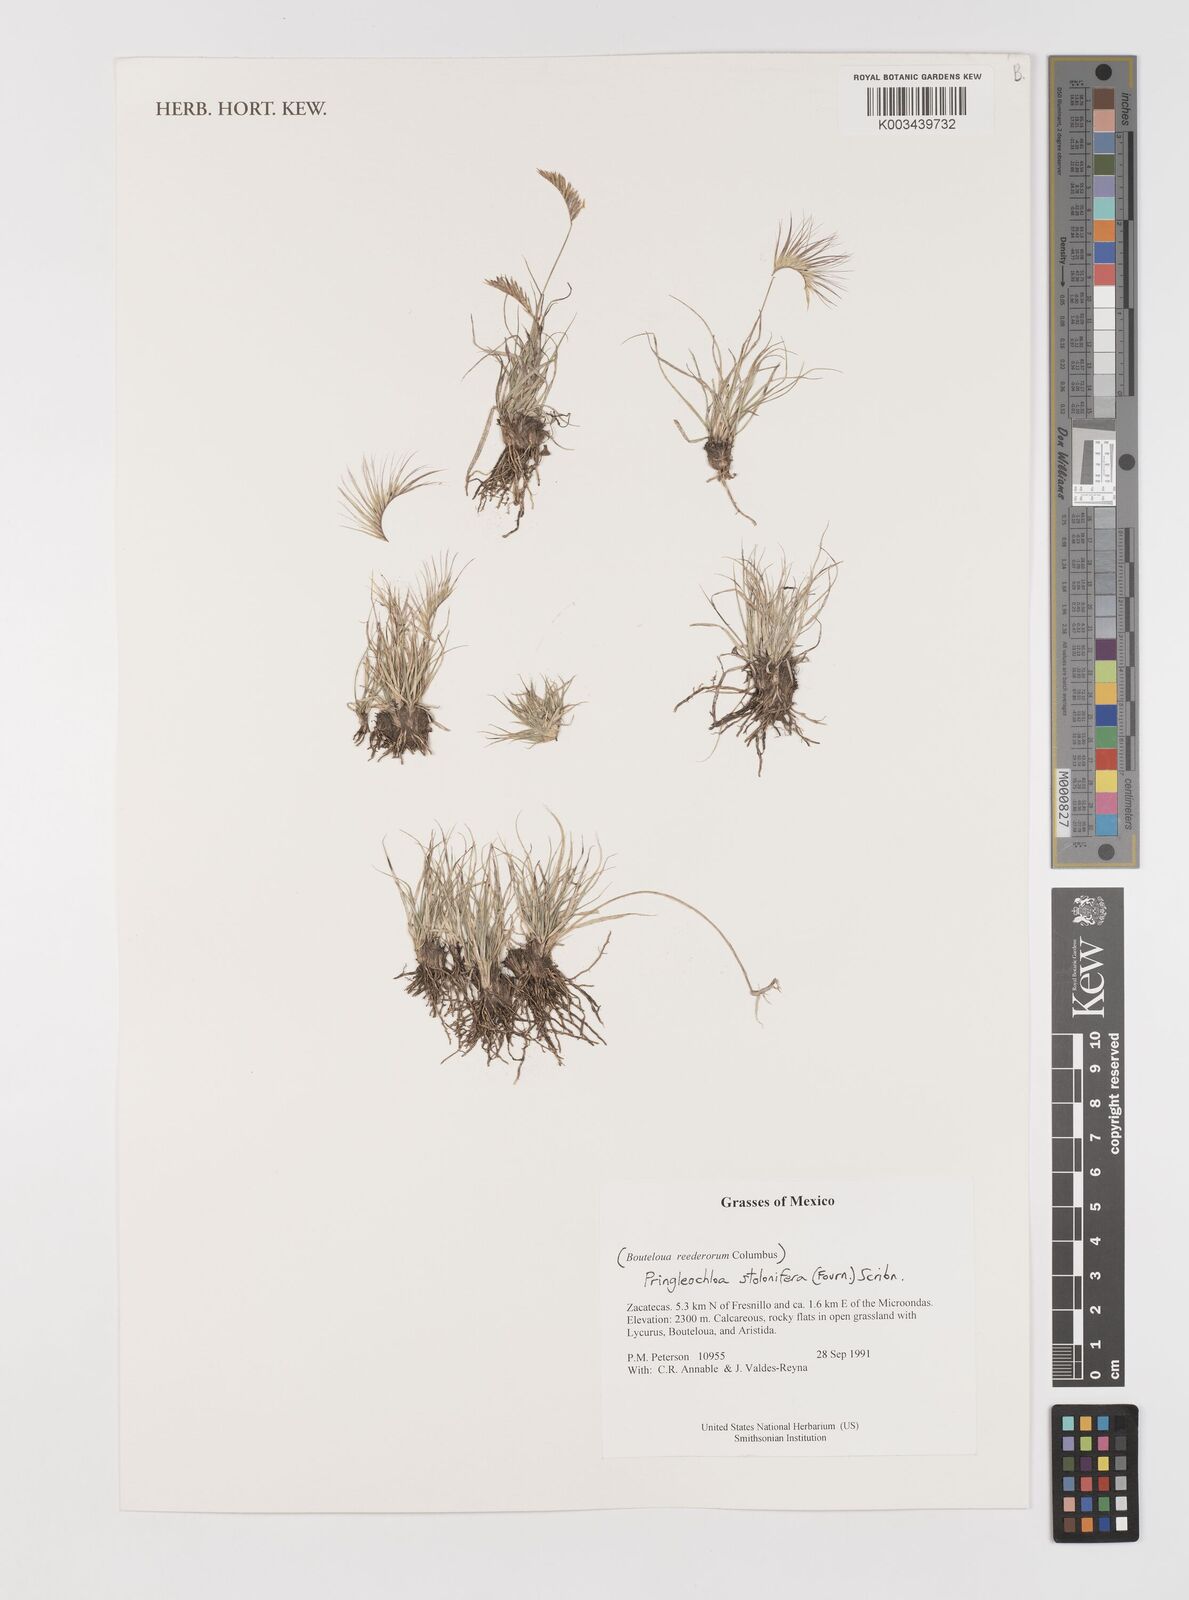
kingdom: Plantae
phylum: Tracheophyta
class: Liliopsida
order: Poales
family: Poaceae
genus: Bouteloua
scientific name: Bouteloua reederorum
